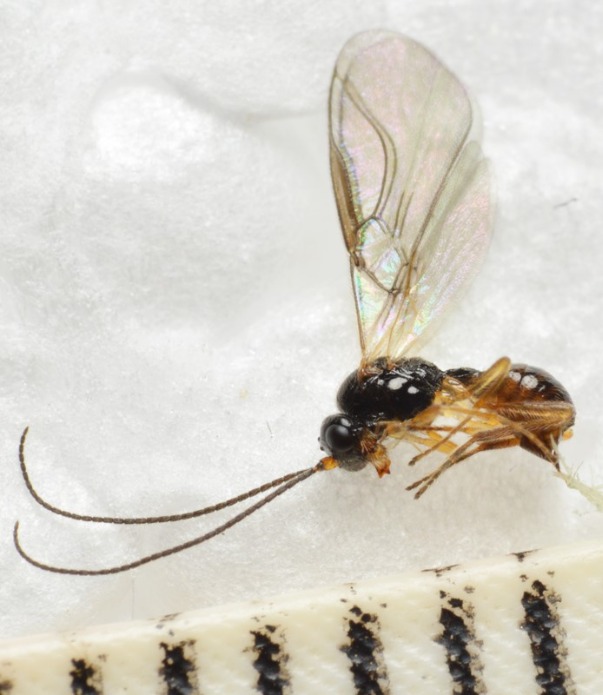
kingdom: Animalia
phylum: Arthropoda
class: Insecta
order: Hymenoptera
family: Braconidae
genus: Dacnusa
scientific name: Dacnusa tarsalis
